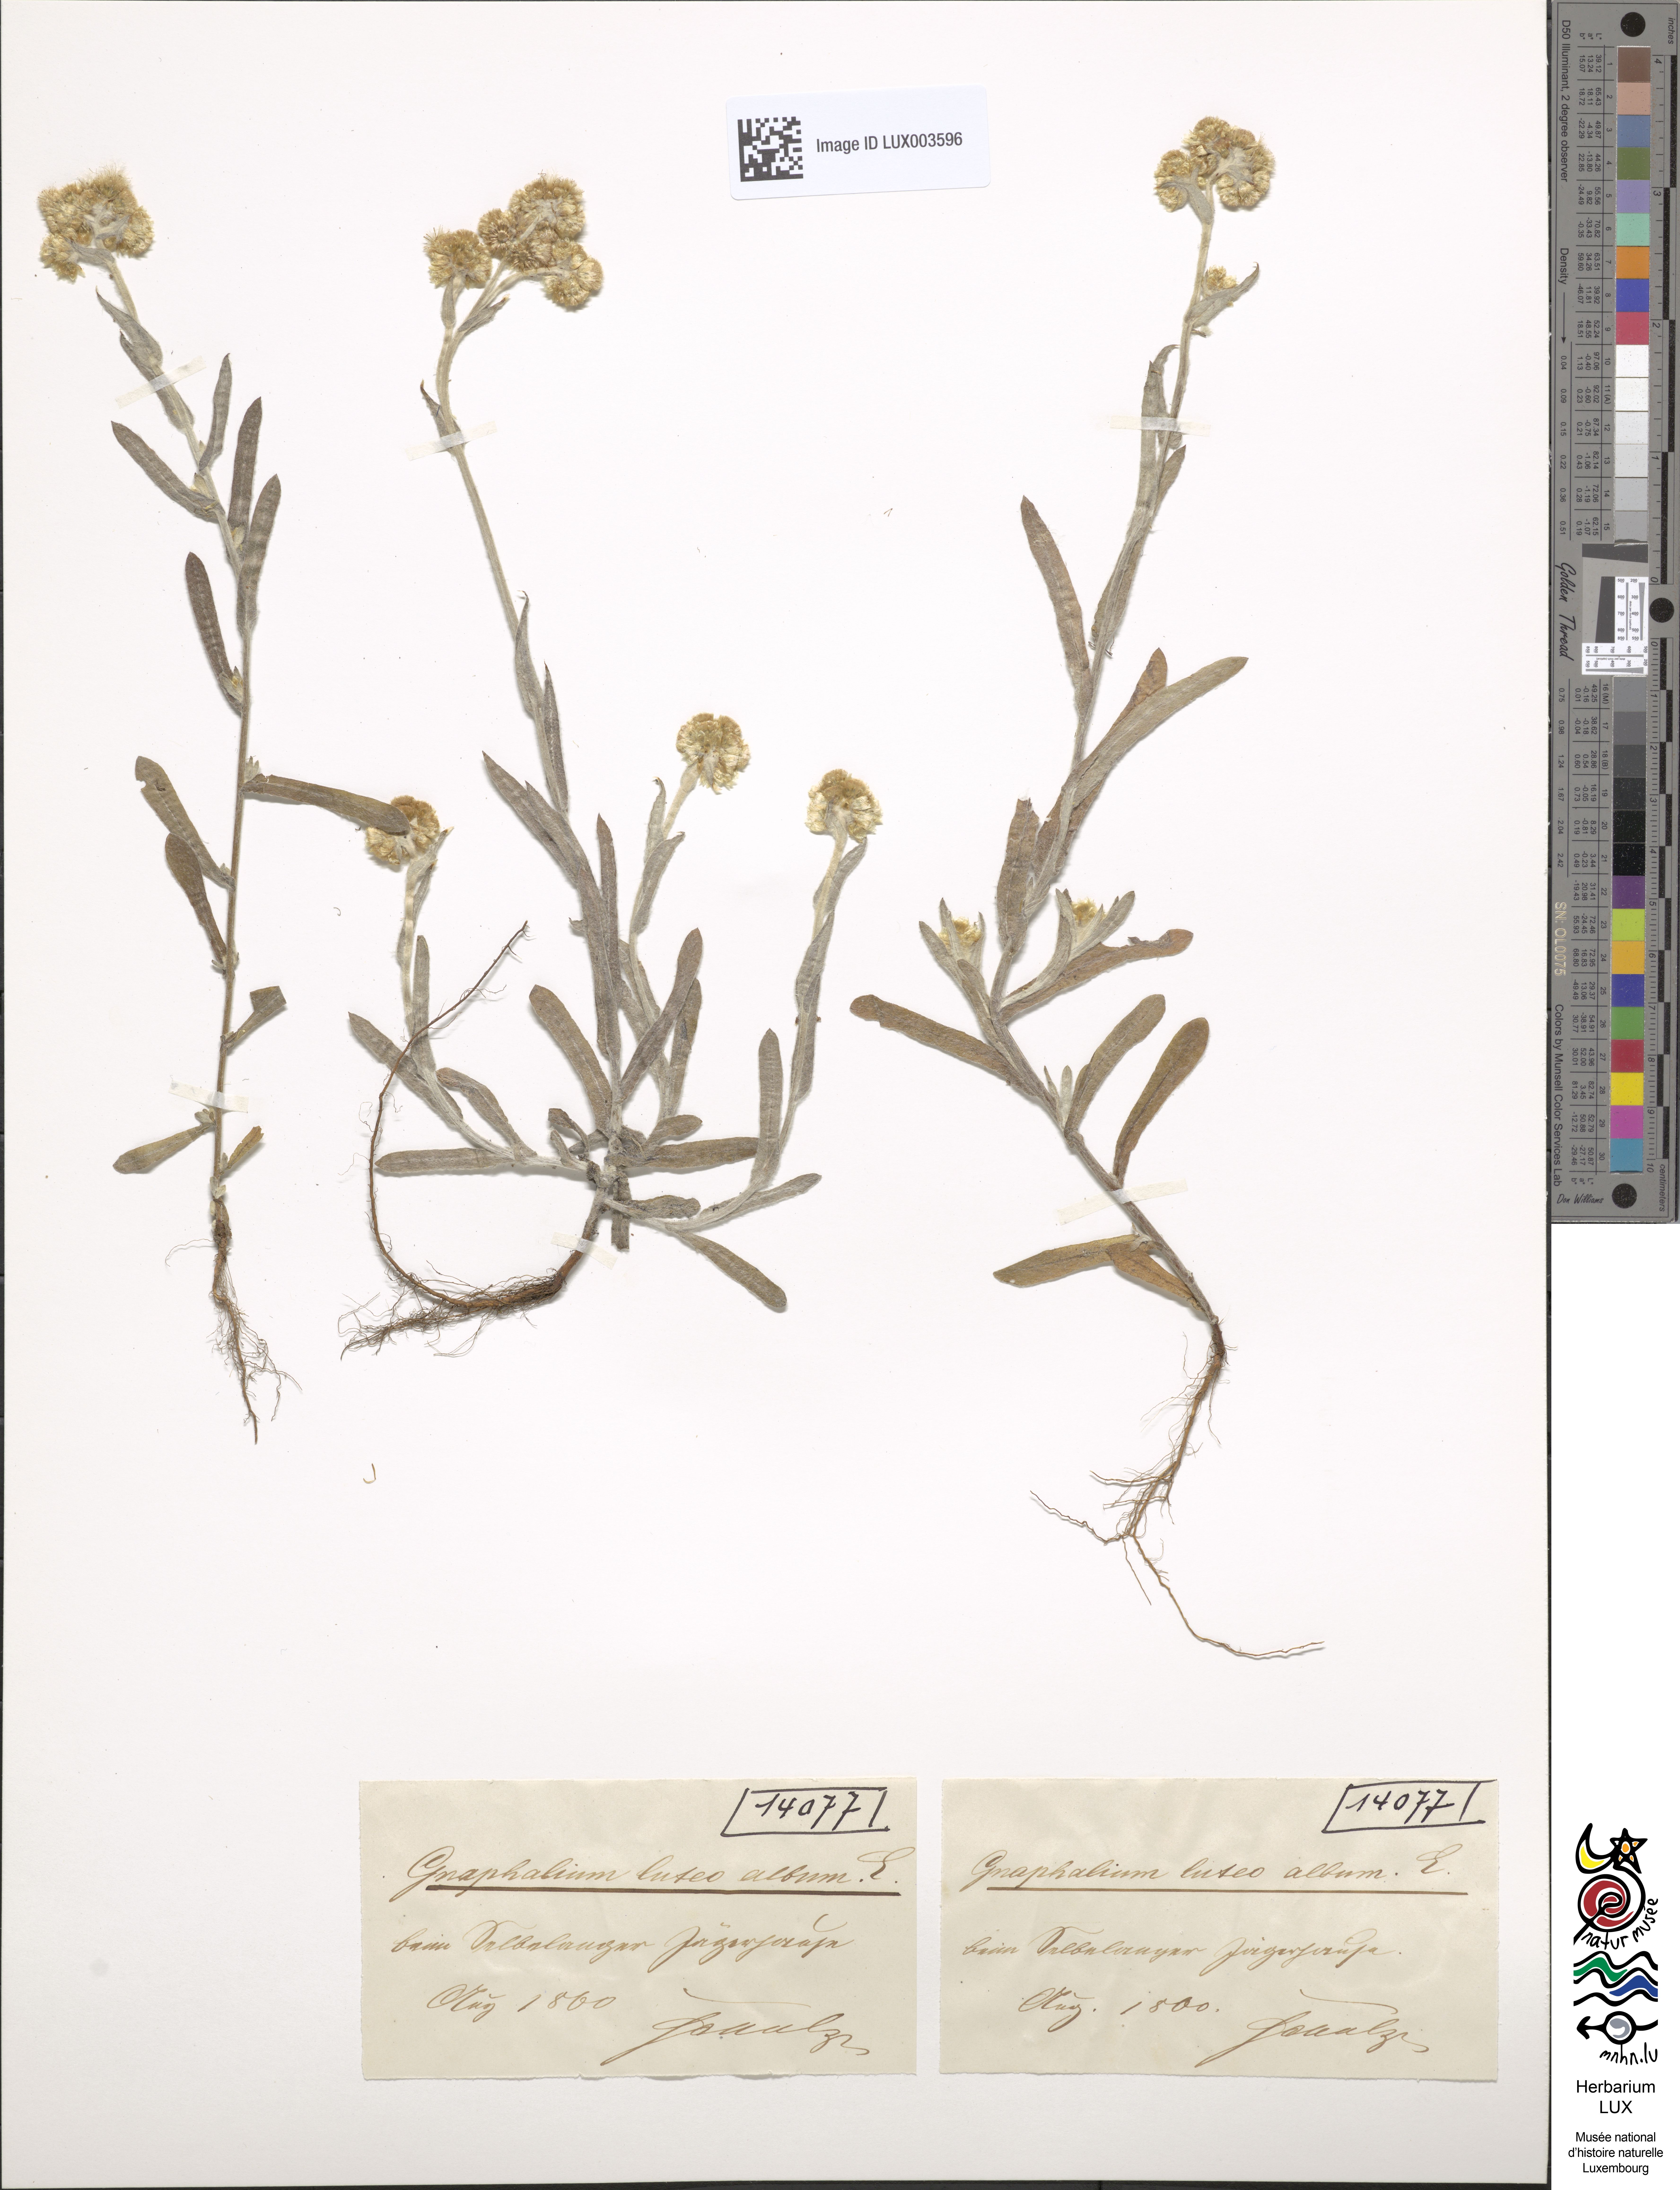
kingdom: Plantae
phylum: Tracheophyta
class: Magnoliopsida
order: Asterales
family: Asteraceae
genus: Helichrysum
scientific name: Helichrysum luteoalbum
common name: Daisy
